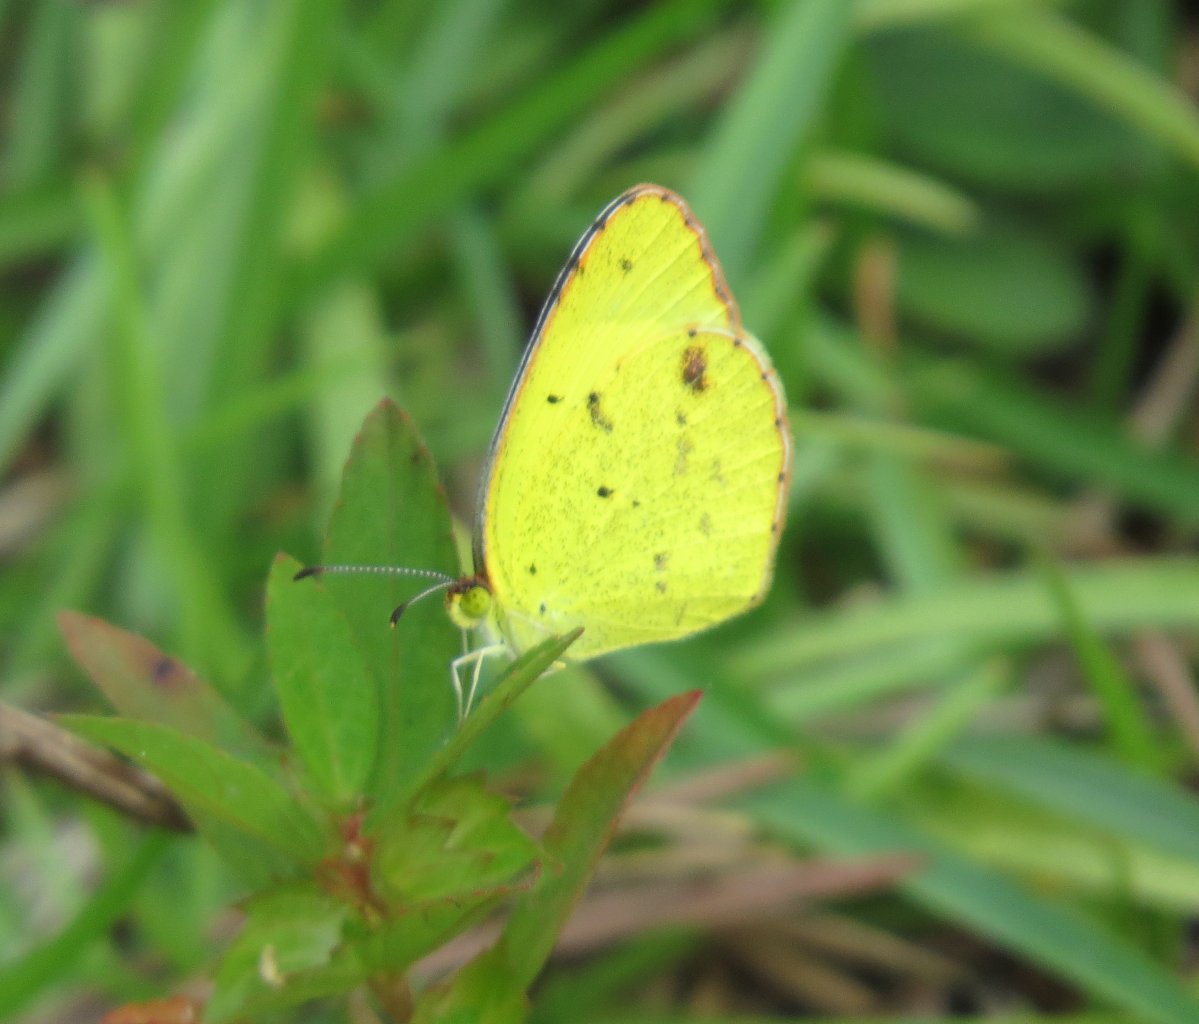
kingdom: Animalia
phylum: Arthropoda
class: Insecta
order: Lepidoptera
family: Pieridae
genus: Pyrisitia
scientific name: Pyrisitia lisa
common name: Little Yellow
